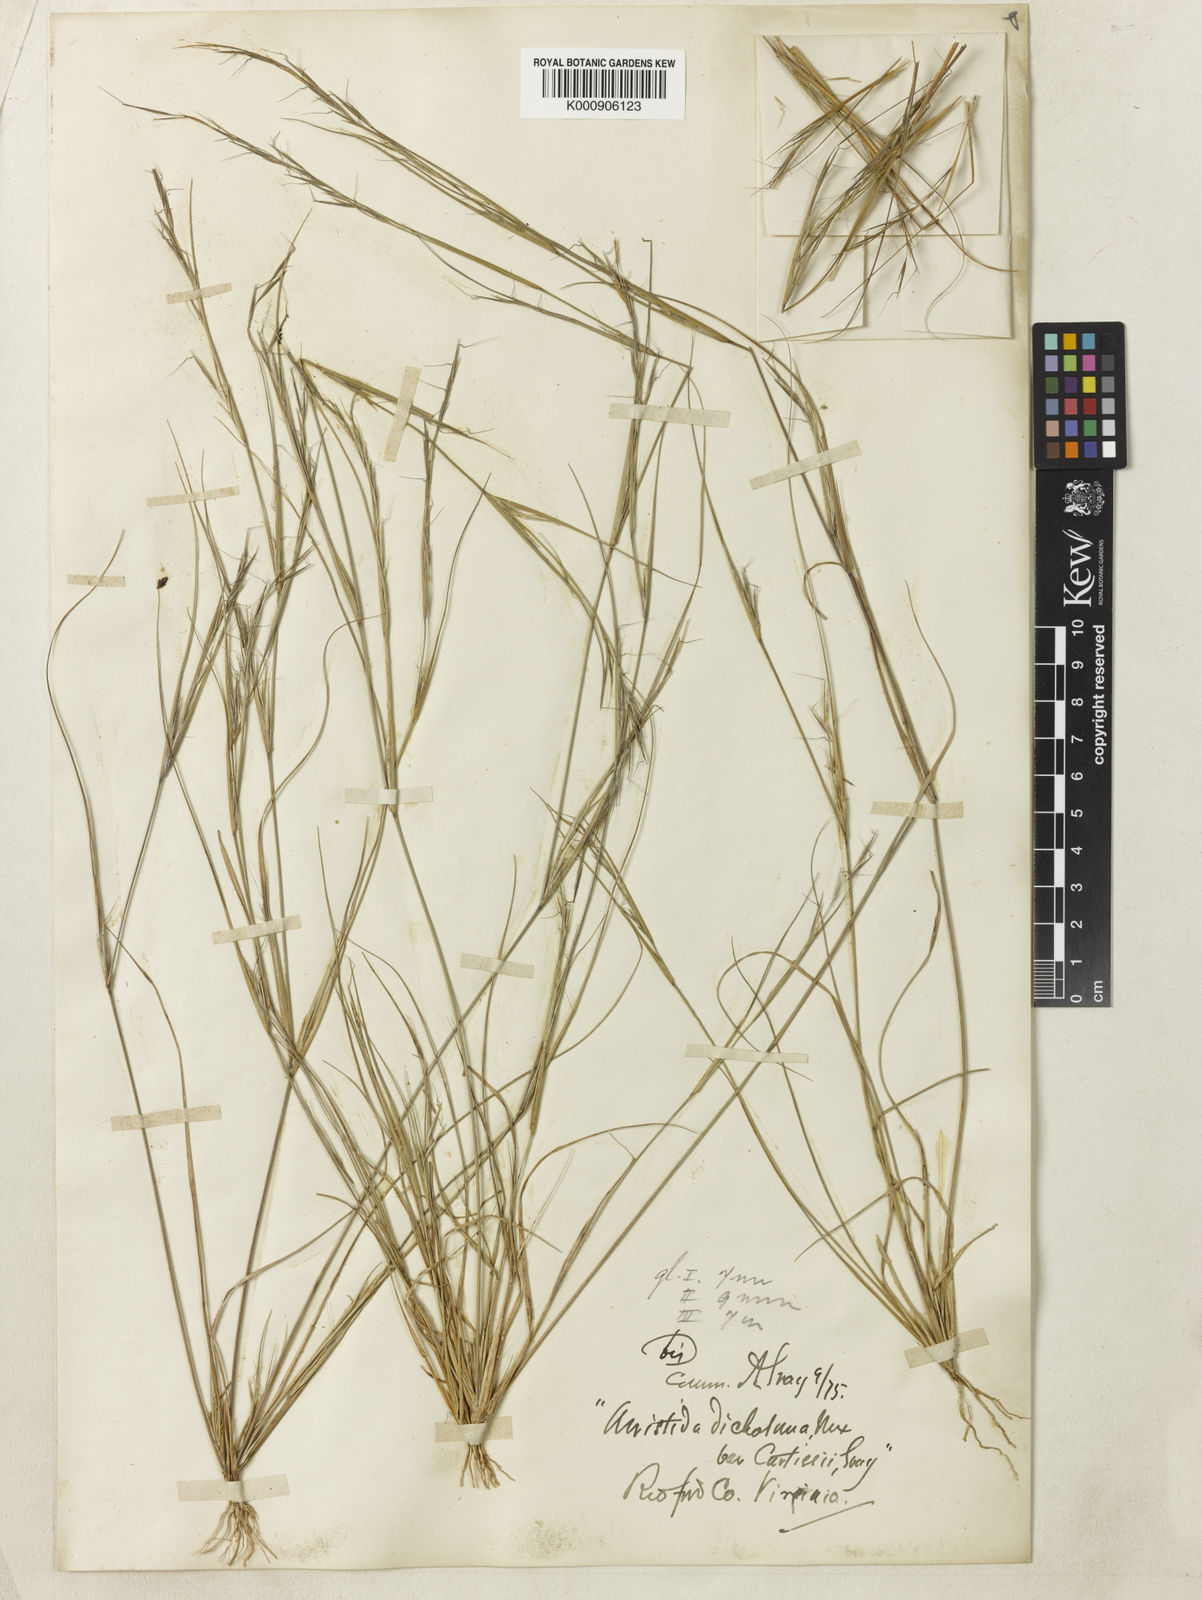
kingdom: Plantae
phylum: Tracheophyta
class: Liliopsida
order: Poales
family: Poaceae
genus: Aristida
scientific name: Aristida curtissii
